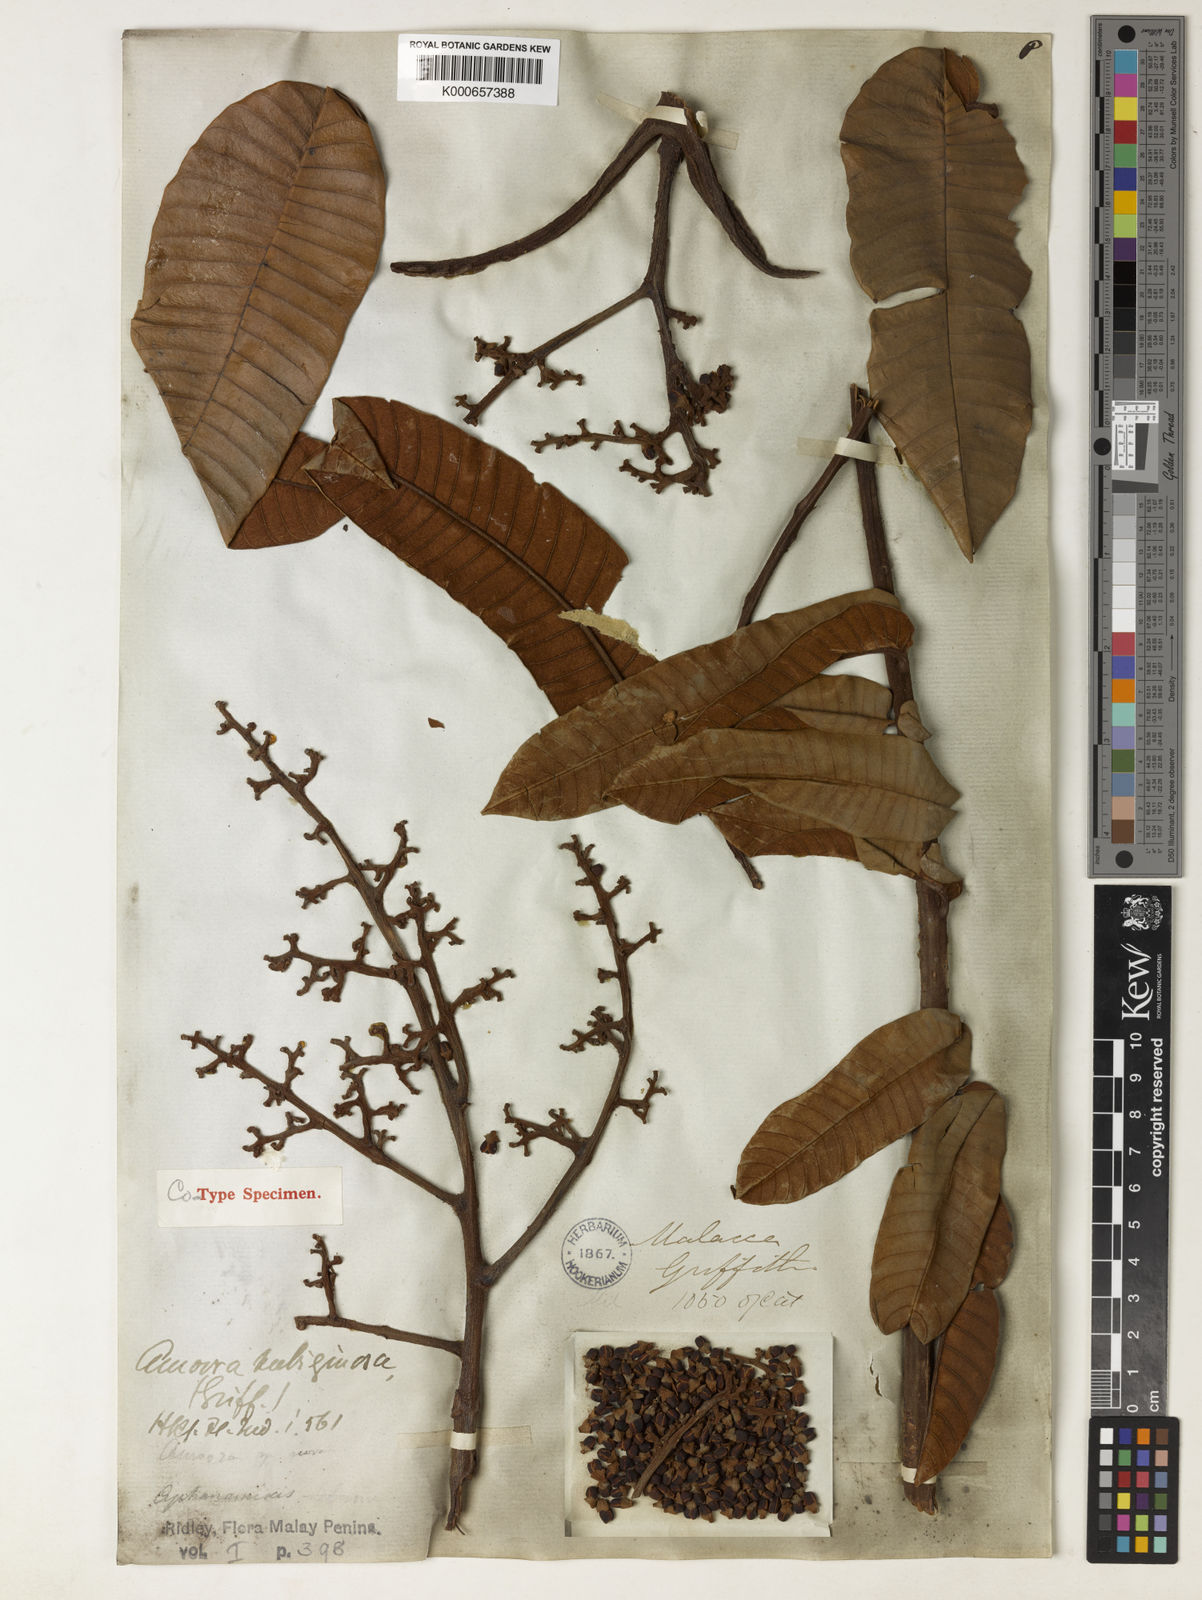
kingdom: Plantae
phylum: Tracheophyta
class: Magnoliopsida
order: Sapindales
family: Meliaceae
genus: Aglaia
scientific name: Aglaia rubiginosa
